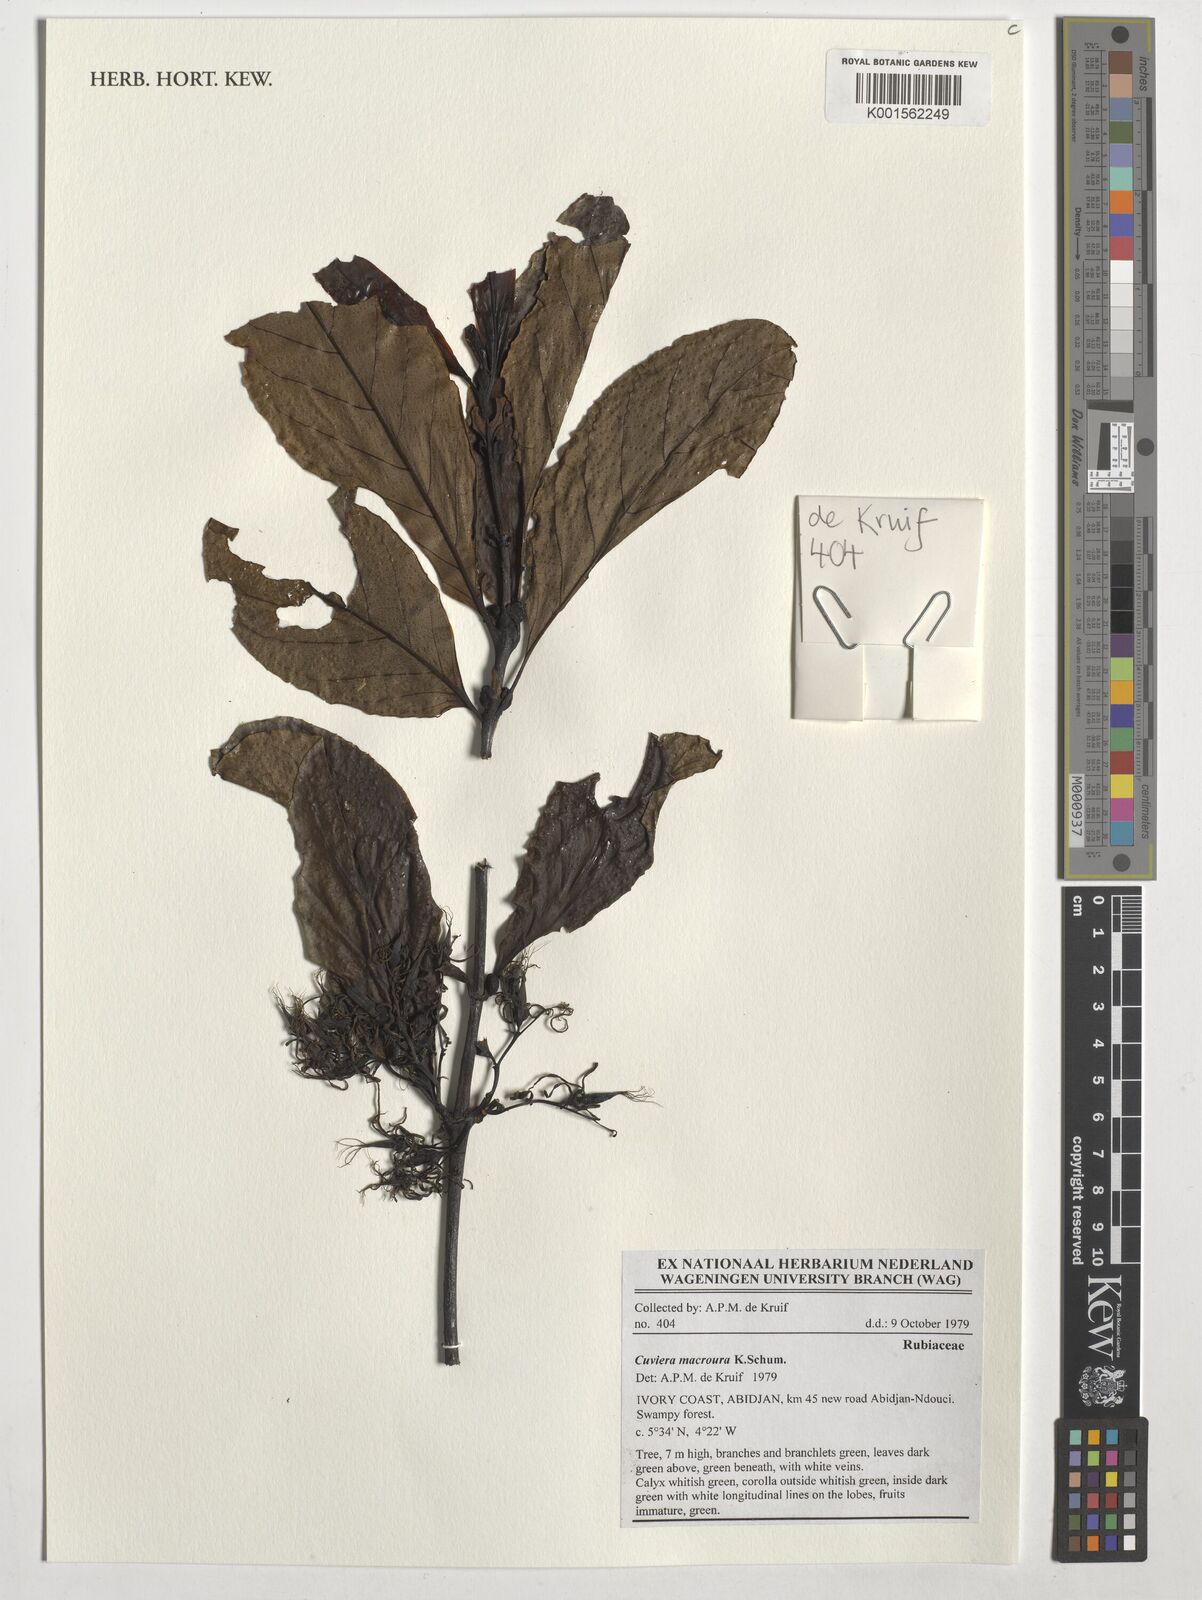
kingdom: Plantae
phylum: Tracheophyta
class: Magnoliopsida
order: Gentianales
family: Rubiaceae
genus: Cuviera
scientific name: Cuviera macroura
